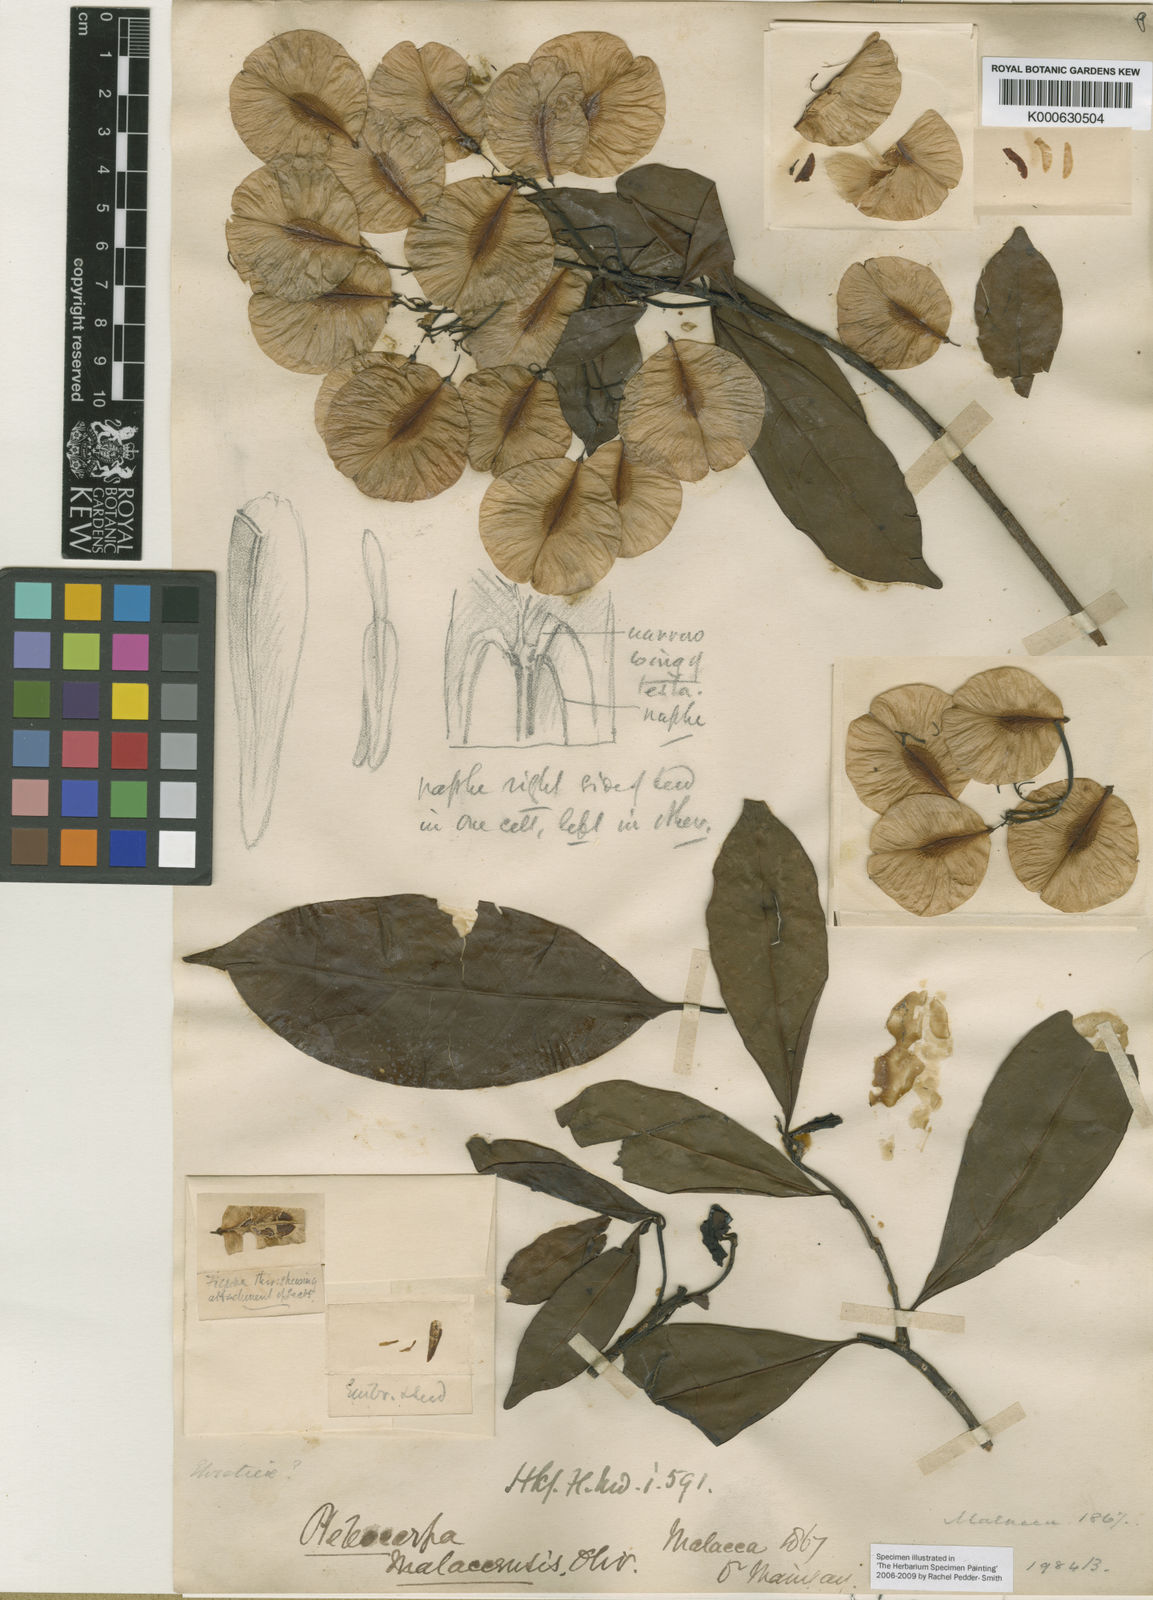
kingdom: Plantae
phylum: Tracheophyta
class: Magnoliopsida
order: Gentianales
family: Gelsemiaceae
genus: Pteleocarpa
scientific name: Pteleocarpa lamponga
